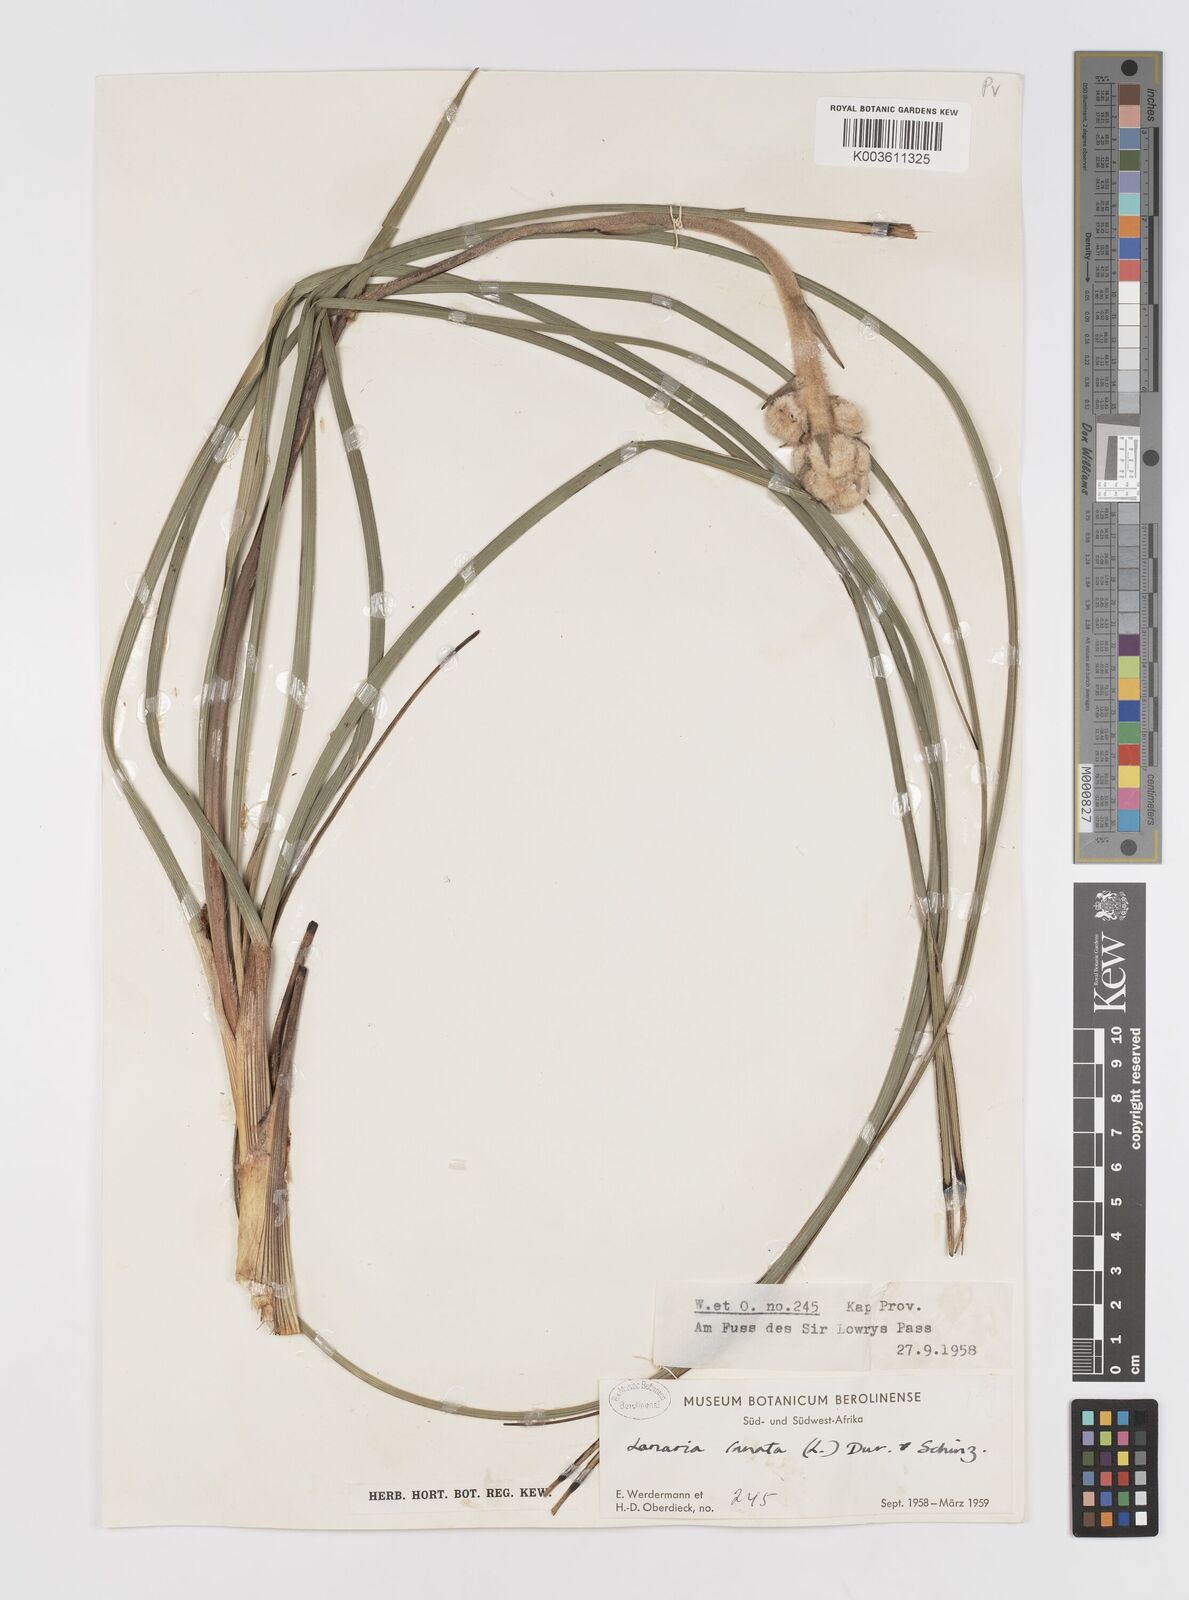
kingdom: Plantae
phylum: Tracheophyta
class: Liliopsida
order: Asparagales
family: Lanariaceae
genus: Lanaria
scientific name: Lanaria lanata
